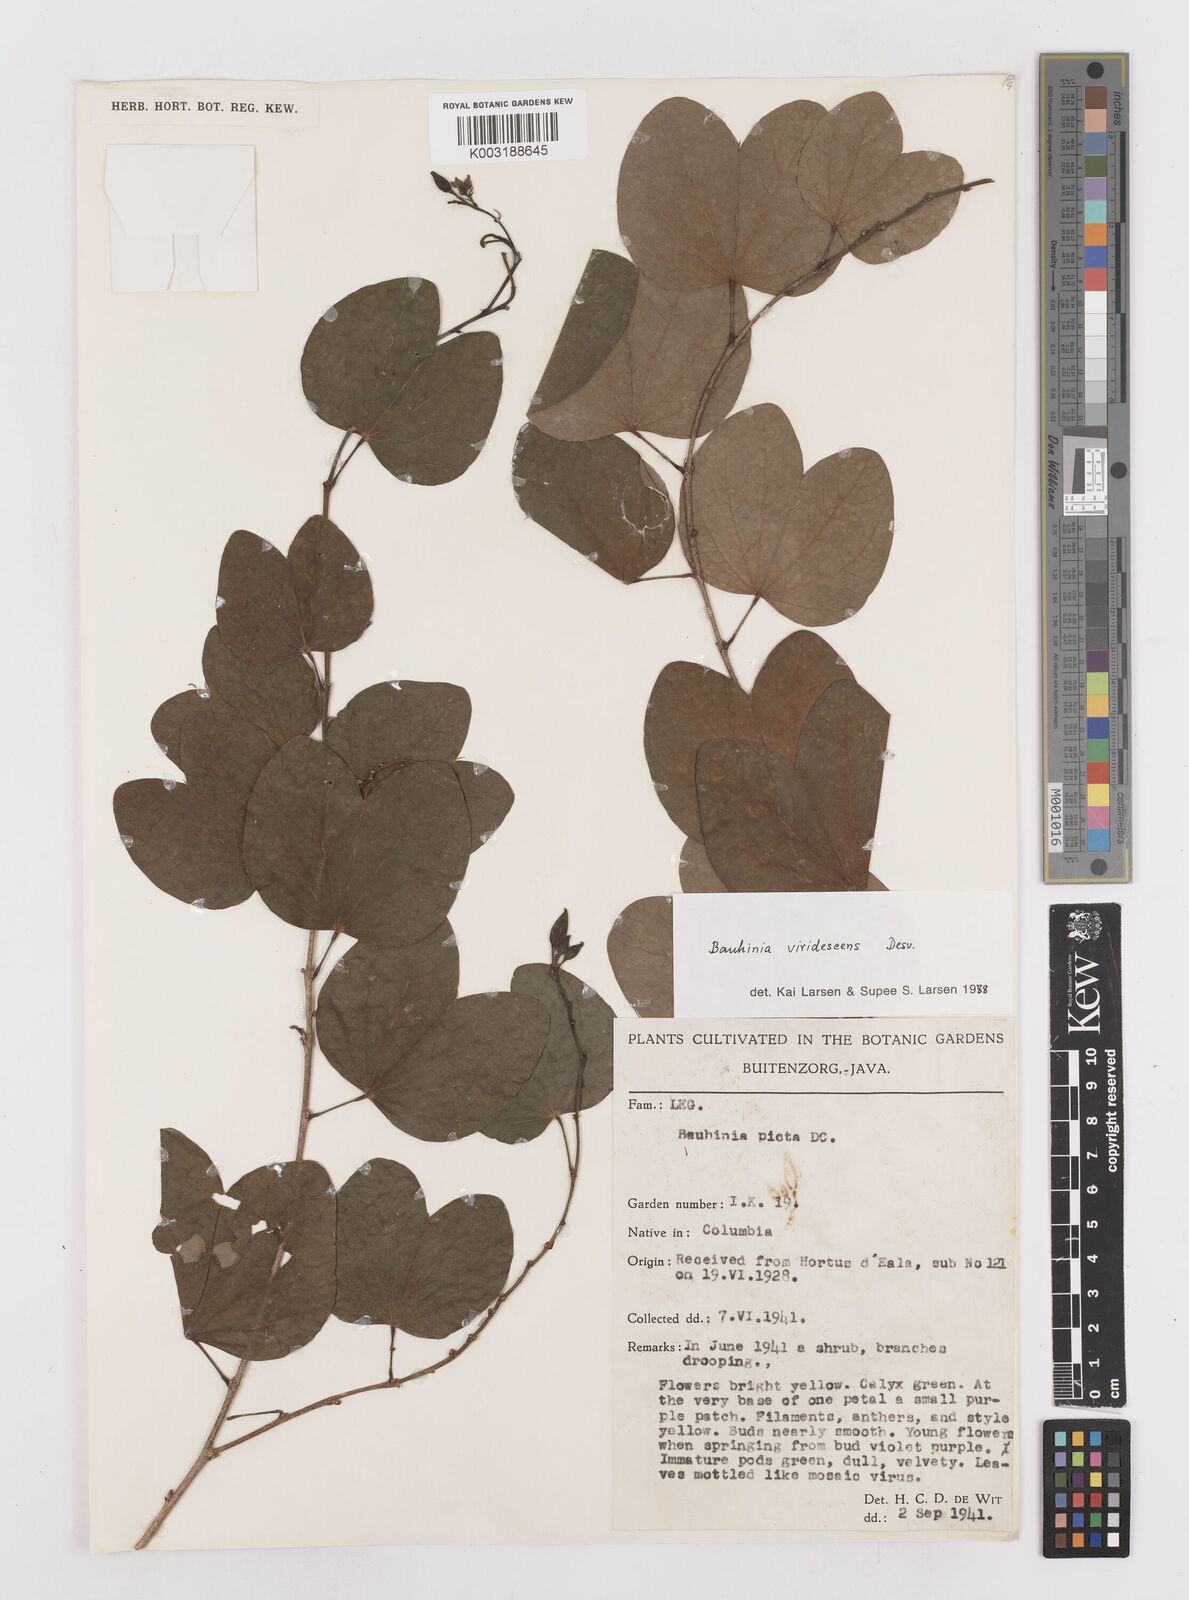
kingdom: Plantae
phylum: Tracheophyta
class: Magnoliopsida
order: Fabales
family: Fabaceae
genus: Bauhinia
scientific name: Bauhinia viridescens
